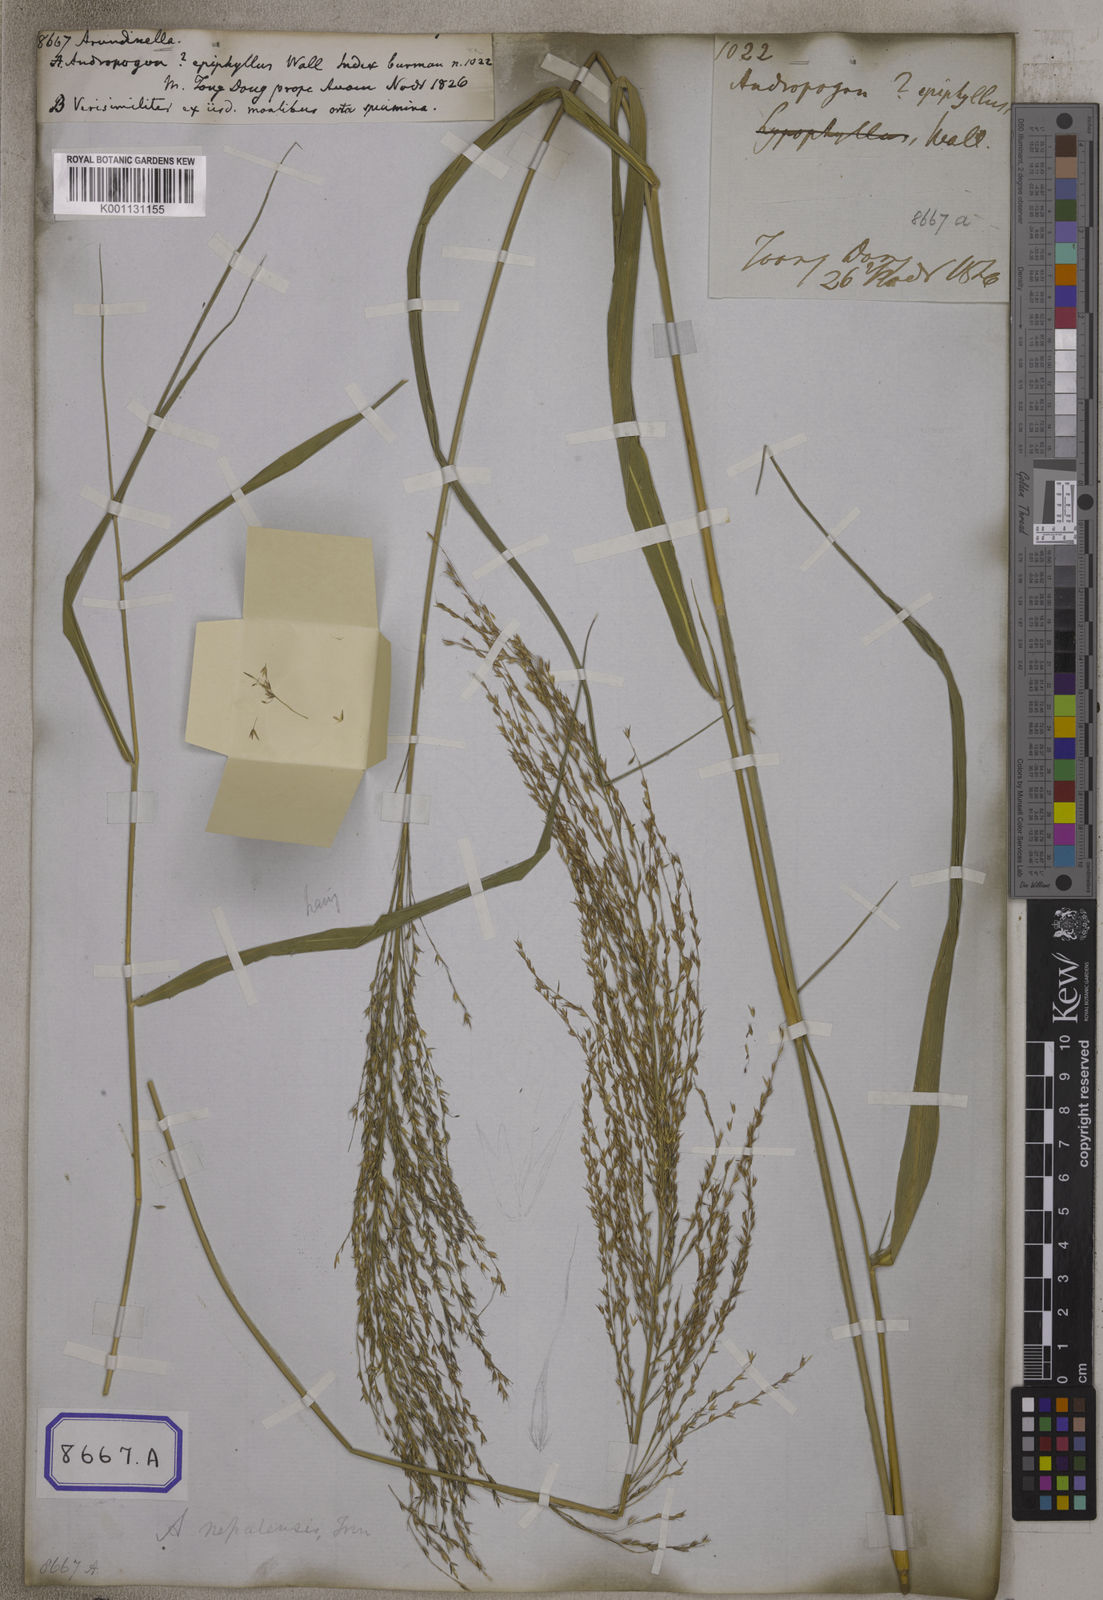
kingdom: Plantae
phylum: Tracheophyta
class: Liliopsida
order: Poales
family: Poaceae
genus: Arundinella
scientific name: Arundinella
